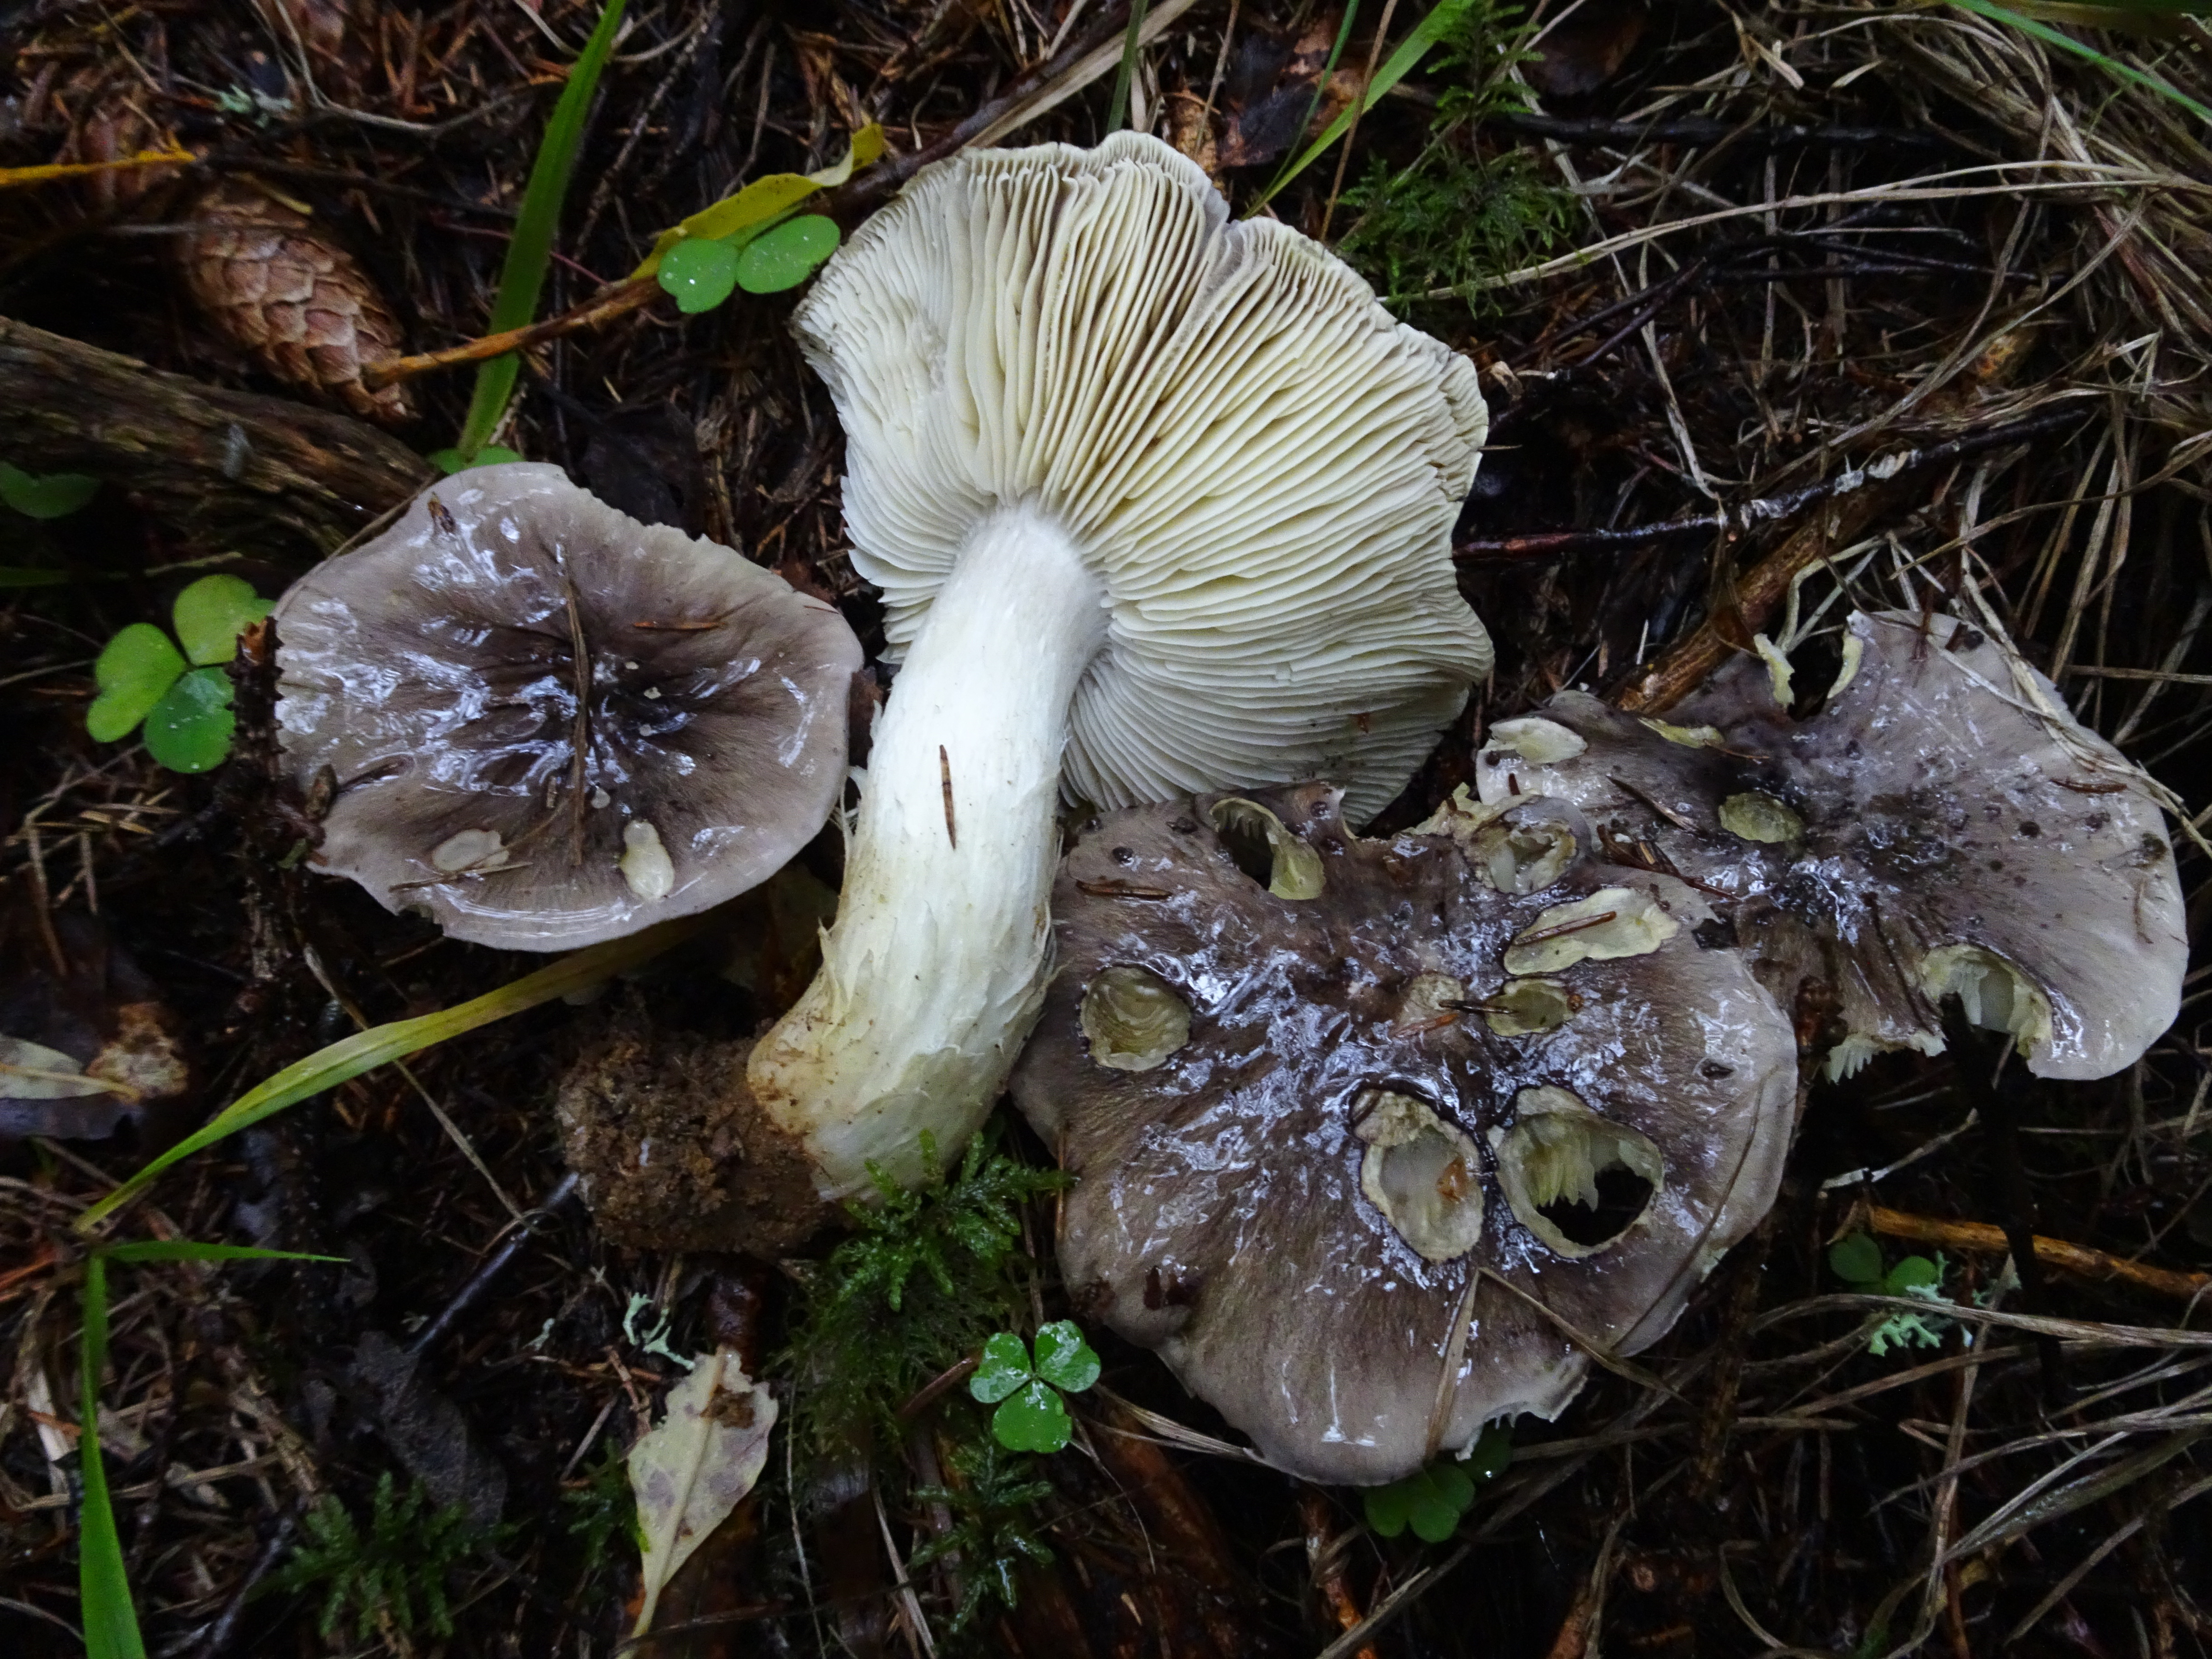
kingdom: Fungi
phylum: Basidiomycota
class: Agaricomycetes
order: Agaricales
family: Tricholomataceae
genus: Tricholoma
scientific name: Tricholoma portentosum
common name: Coalman
